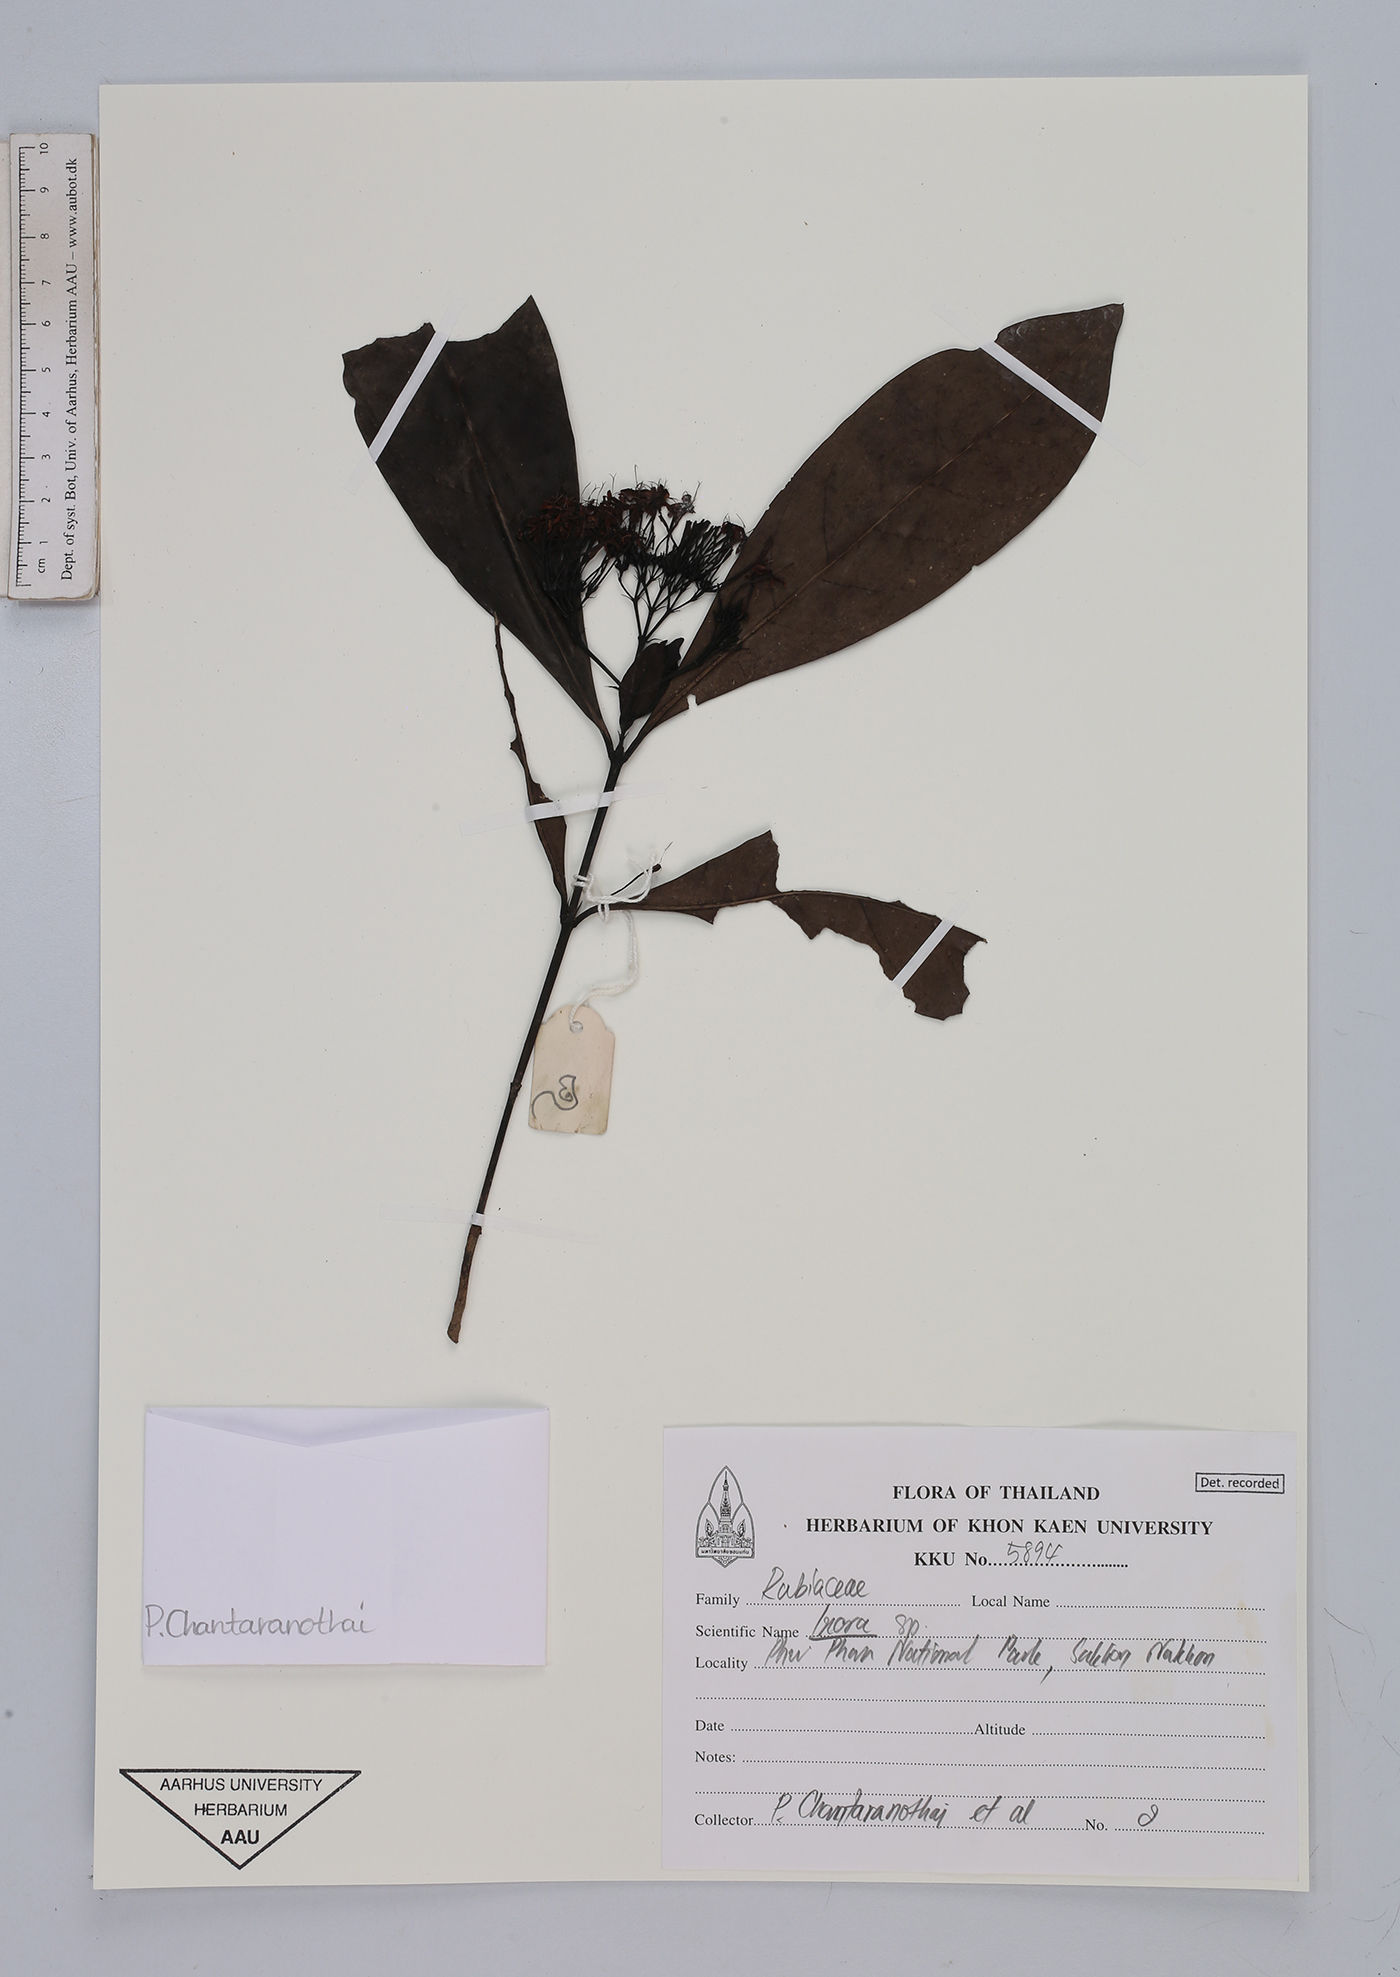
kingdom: Plantae
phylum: Tracheophyta
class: Magnoliopsida
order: Gentianales
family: Rubiaceae
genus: Ixora
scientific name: Ixora
